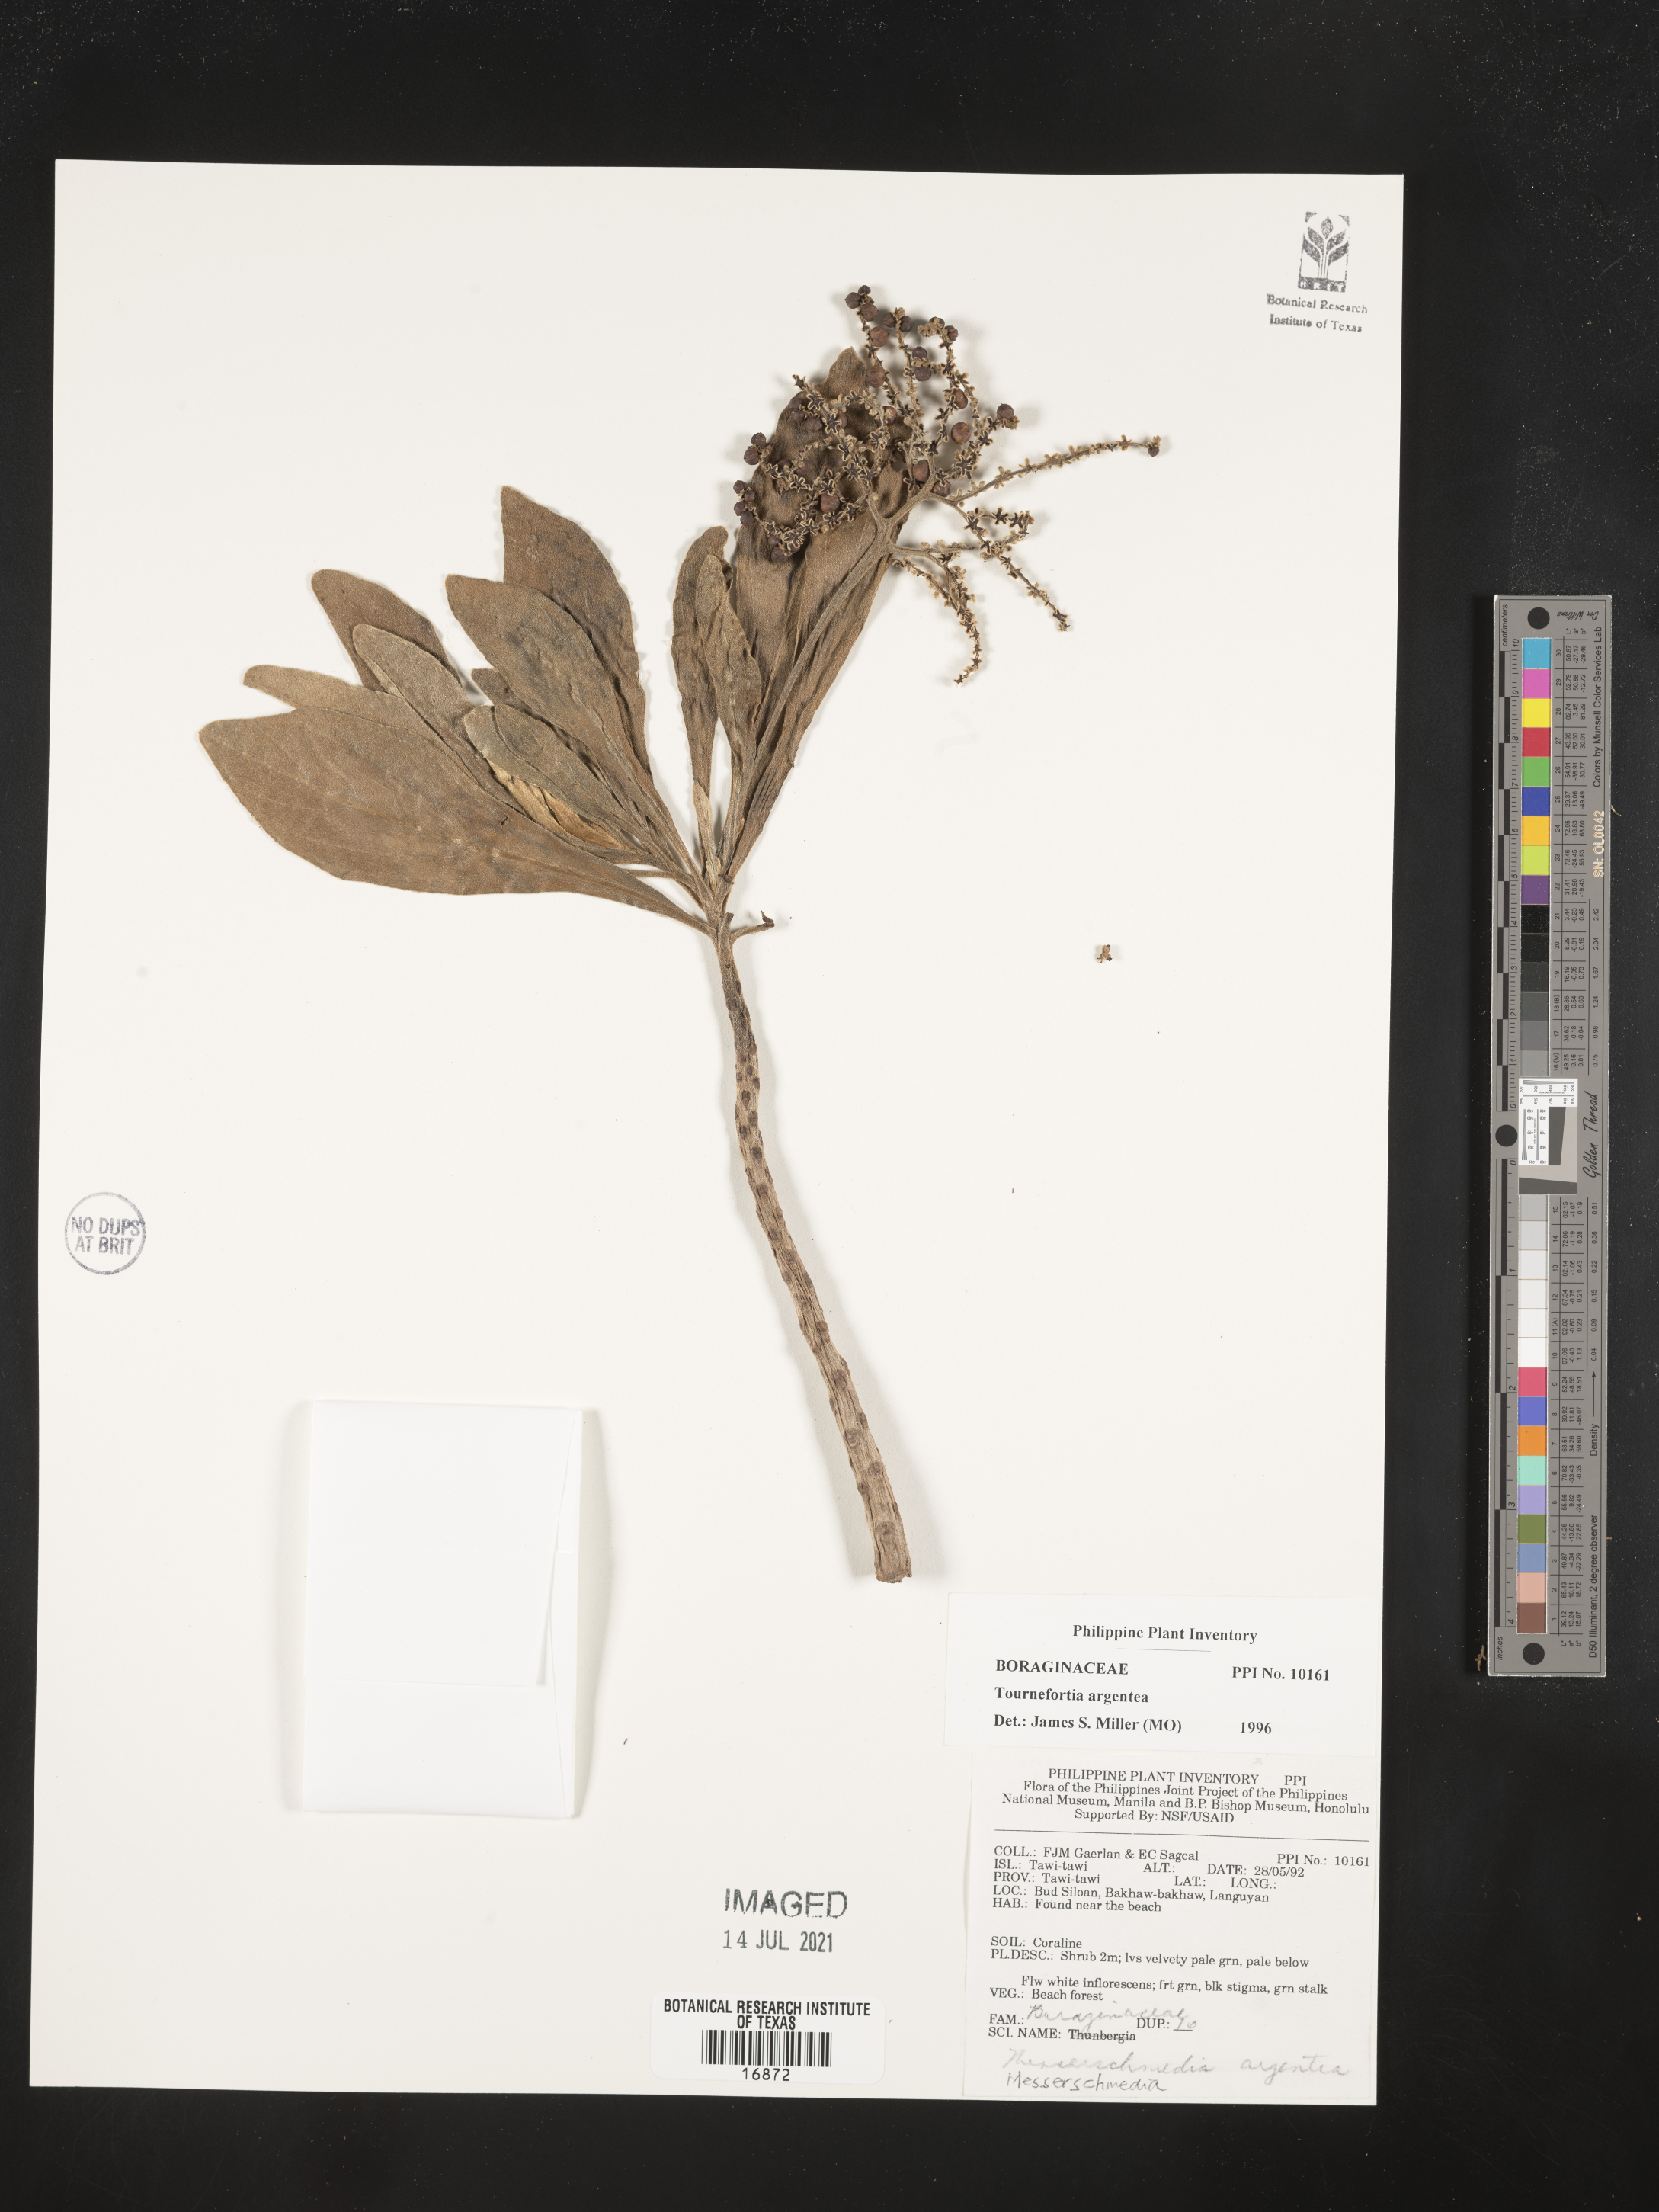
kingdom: Plantae
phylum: Tracheophyta
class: Magnoliopsida
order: Boraginales
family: Heliotropiaceae
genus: Heliotropium
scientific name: Heliotropium velutinum
